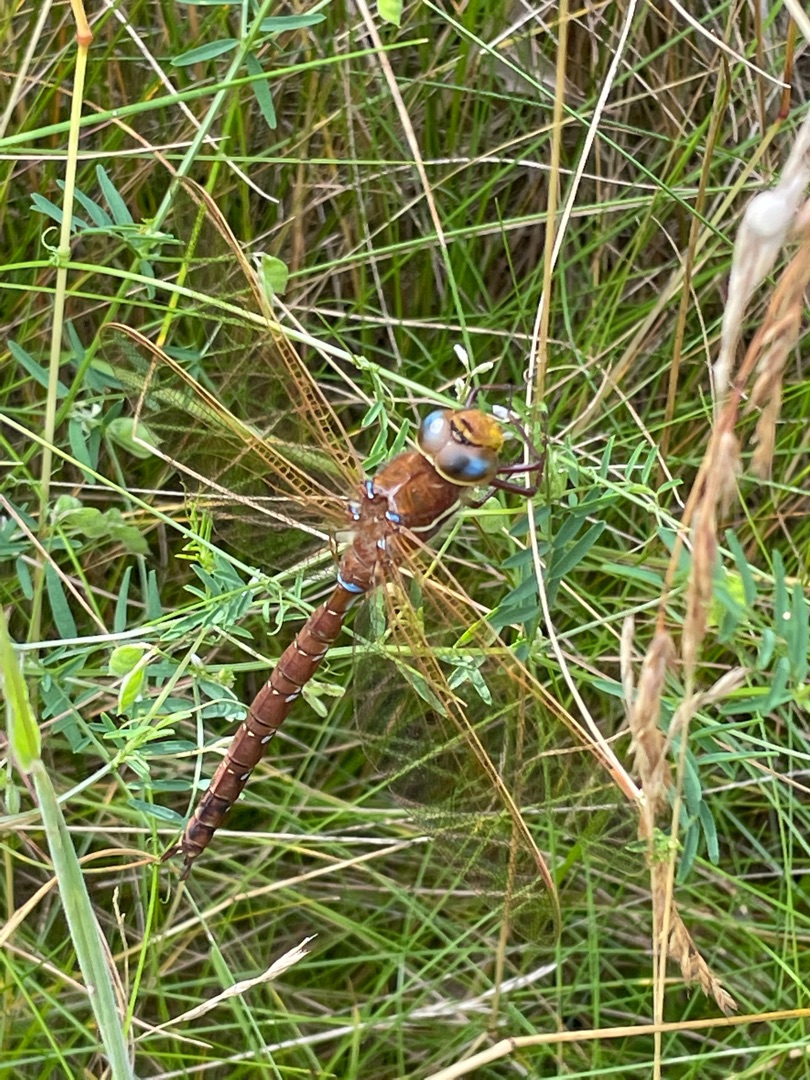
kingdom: Animalia
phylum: Arthropoda
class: Insecta
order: Odonata
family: Aeshnidae
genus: Aeshna
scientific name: Aeshna grandis
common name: Brun mosaikguldsmed
